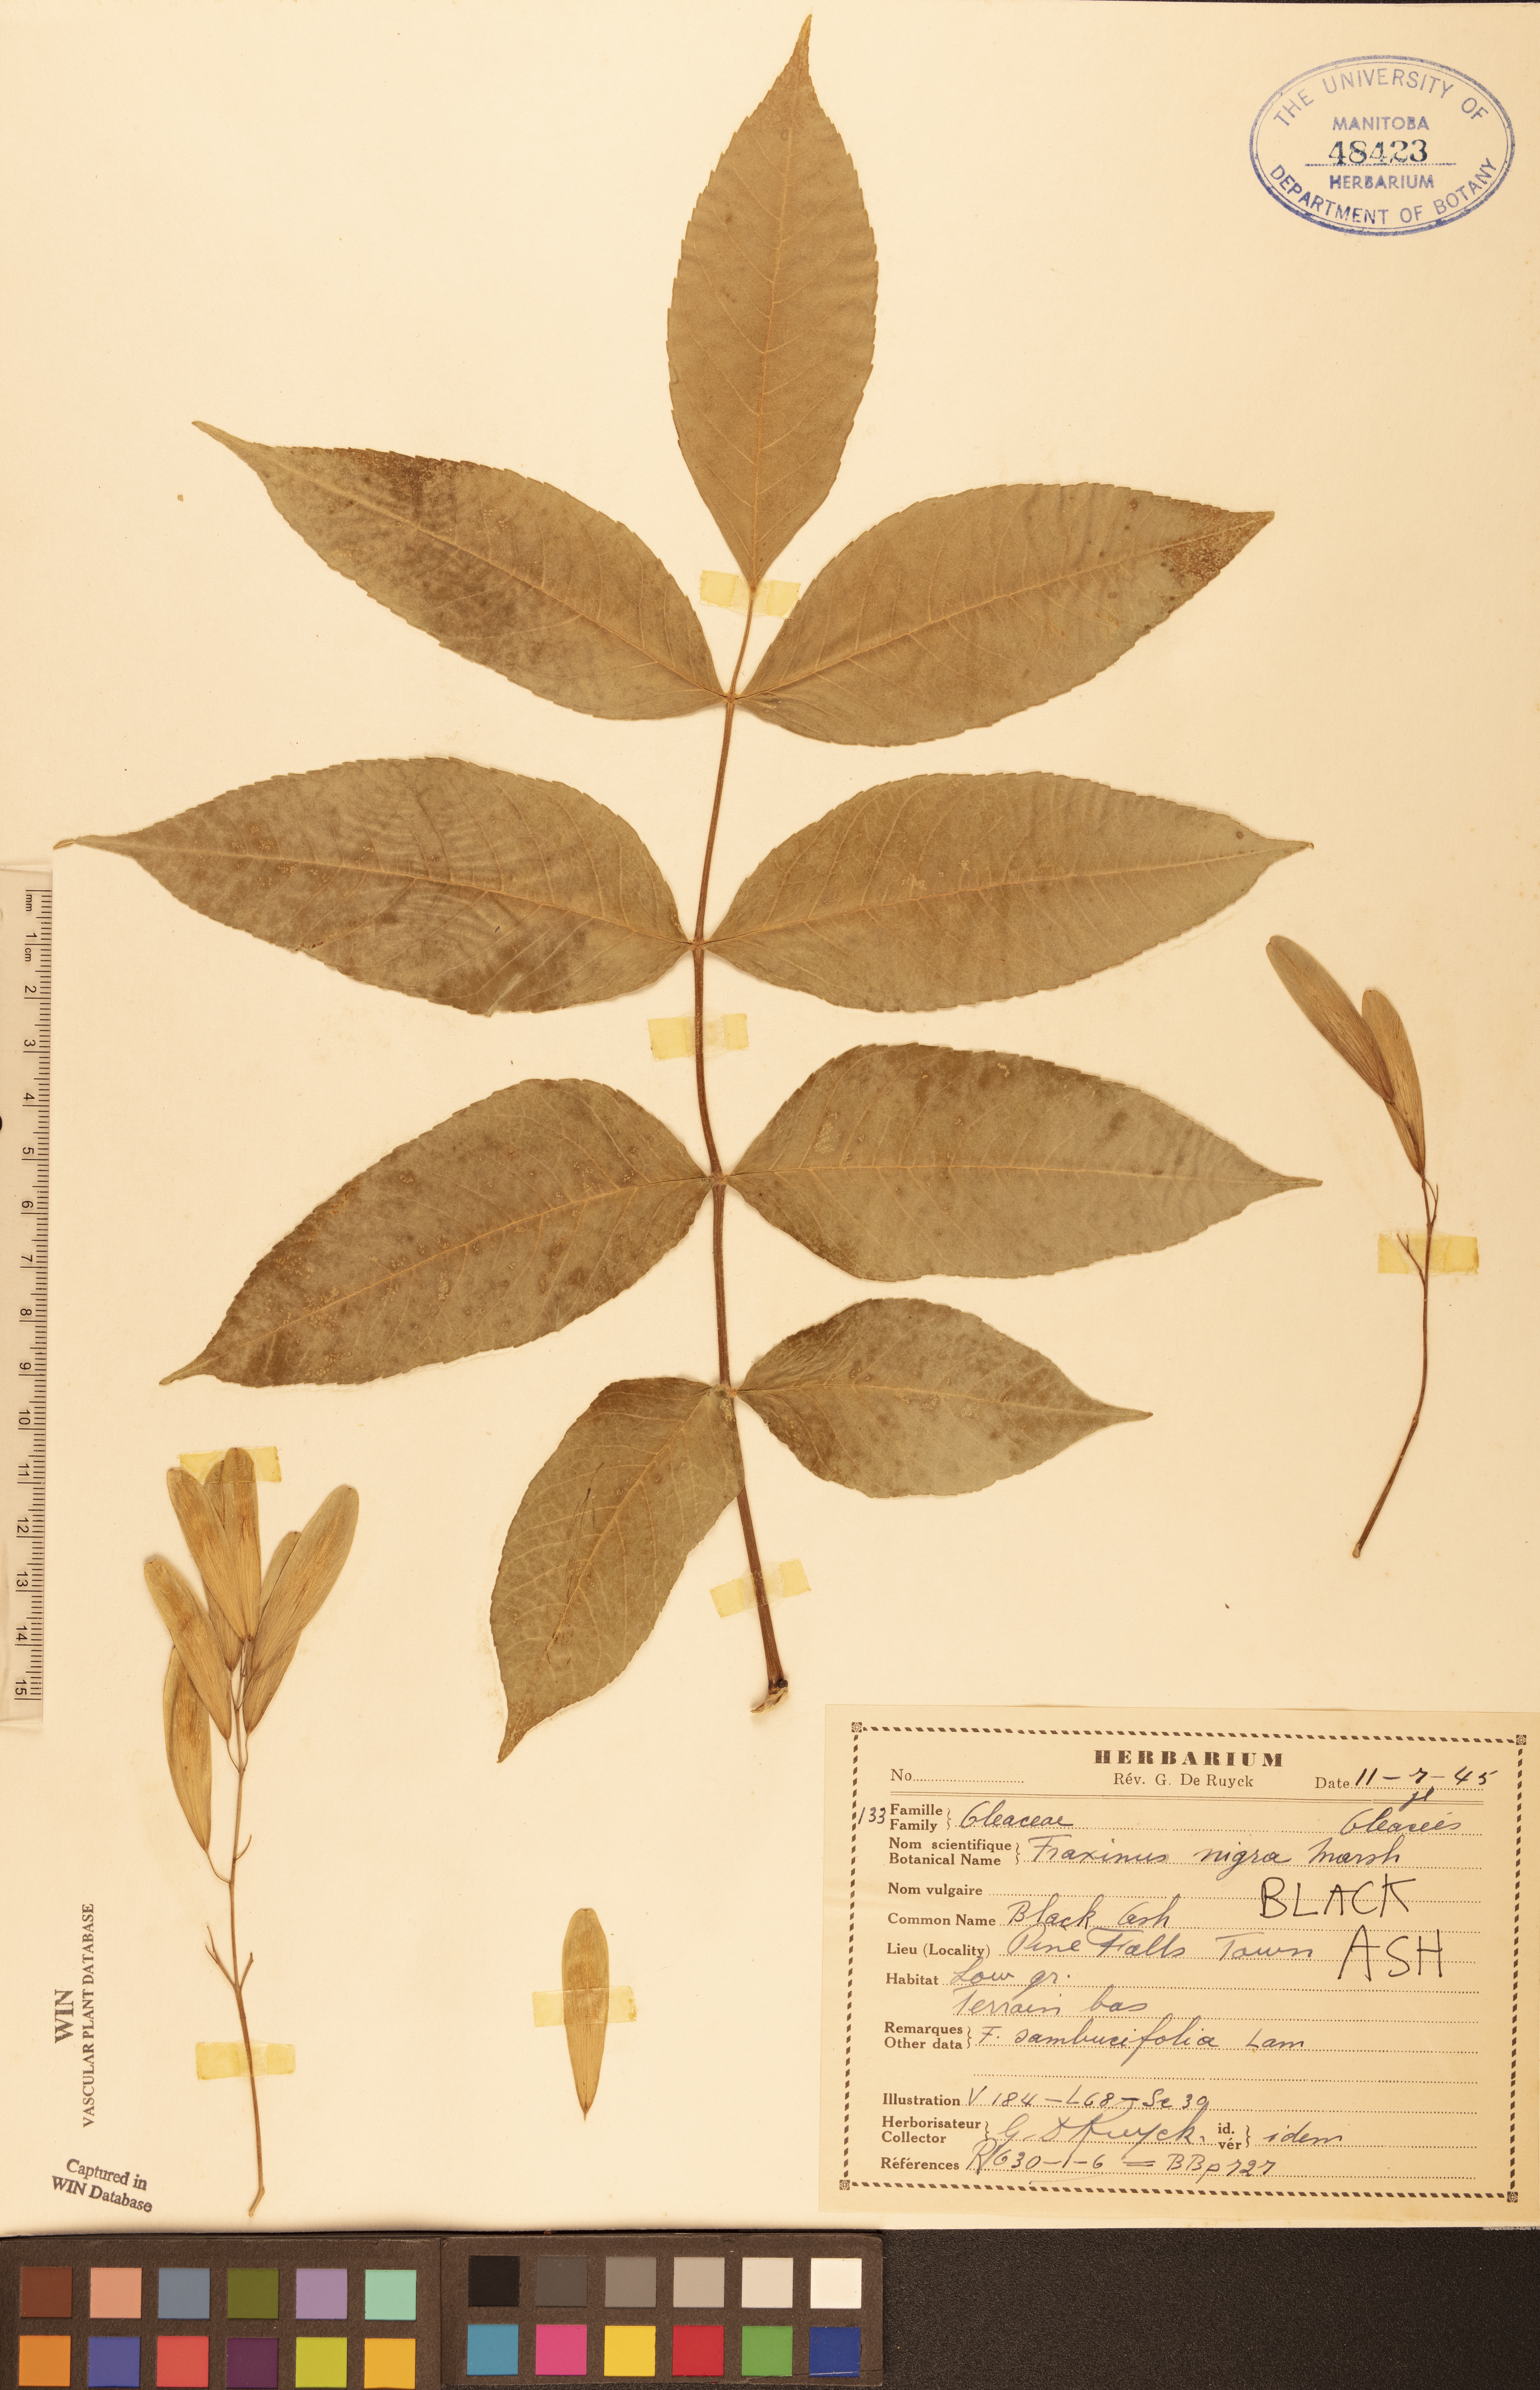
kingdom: Plantae
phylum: Tracheophyta
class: Magnoliopsida
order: Lamiales
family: Oleaceae
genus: Fraxinus
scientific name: Fraxinus nigra
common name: Black ash
